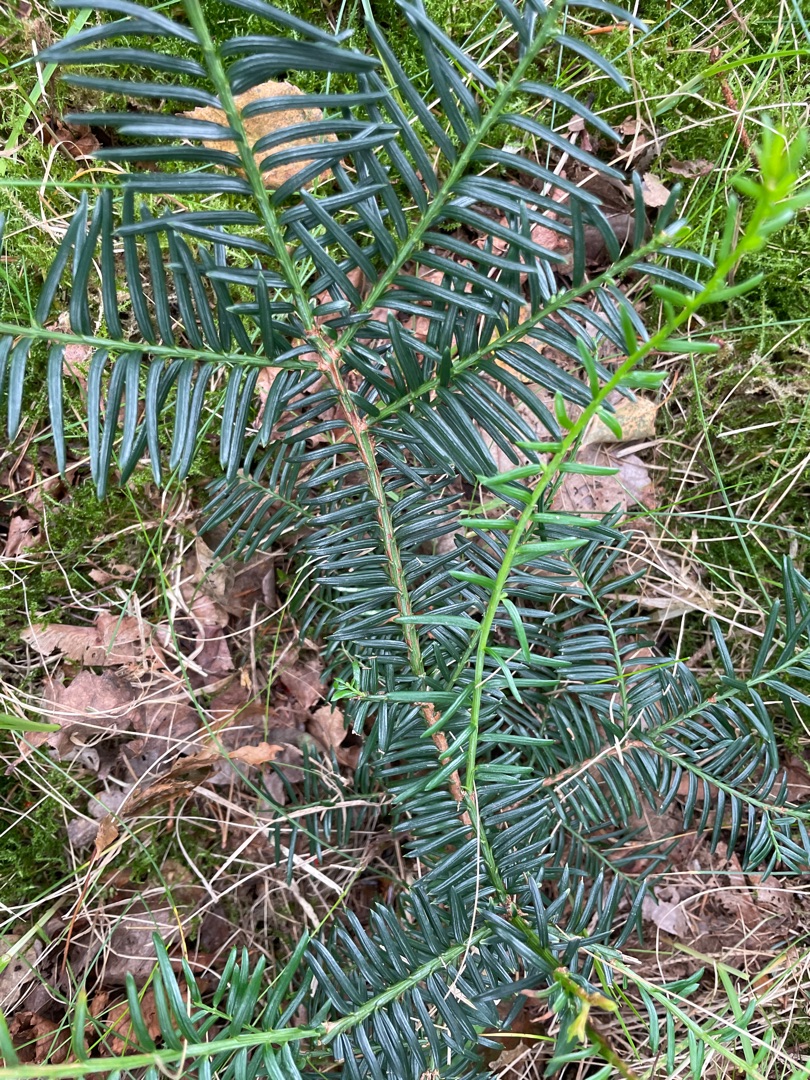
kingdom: Plantae
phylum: Tracheophyta
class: Pinopsida
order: Pinales
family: Taxaceae
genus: Taxus
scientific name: Taxus baccata
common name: Almindelig taks
